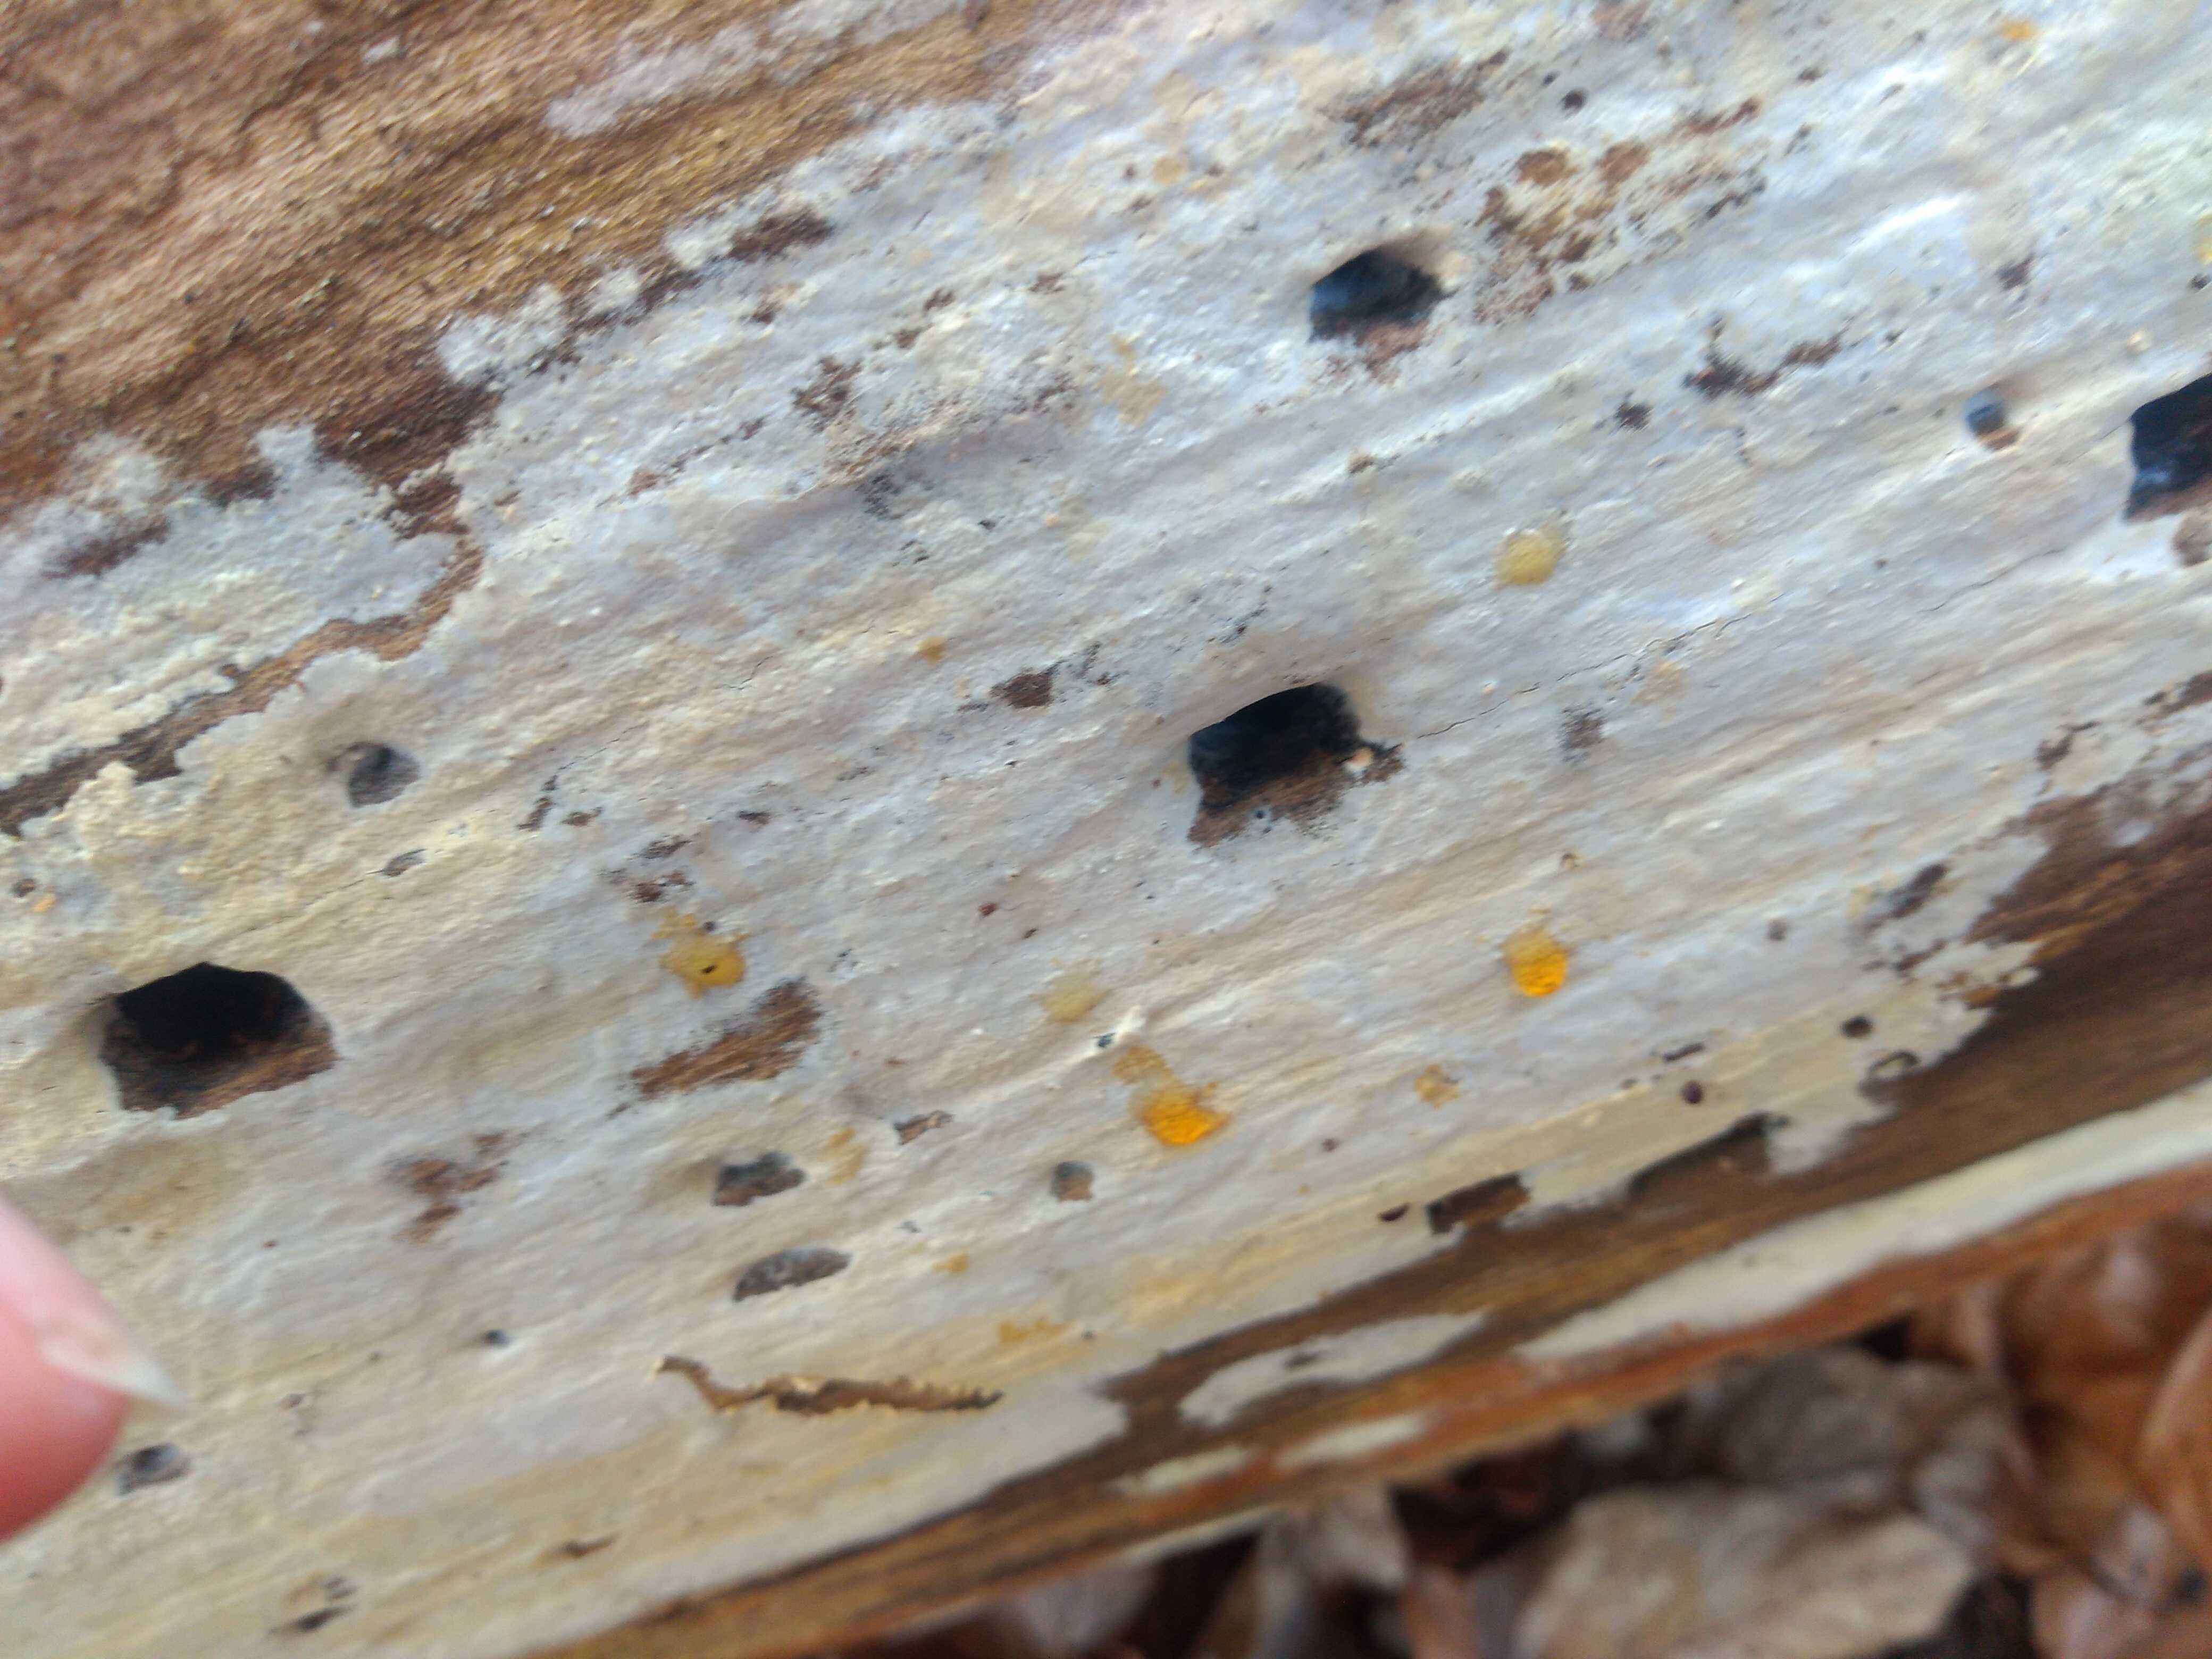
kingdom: Fungi
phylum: Basidiomycota
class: Agaricomycetes
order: Corticiales
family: Corticiaceae
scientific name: Corticiaceae
